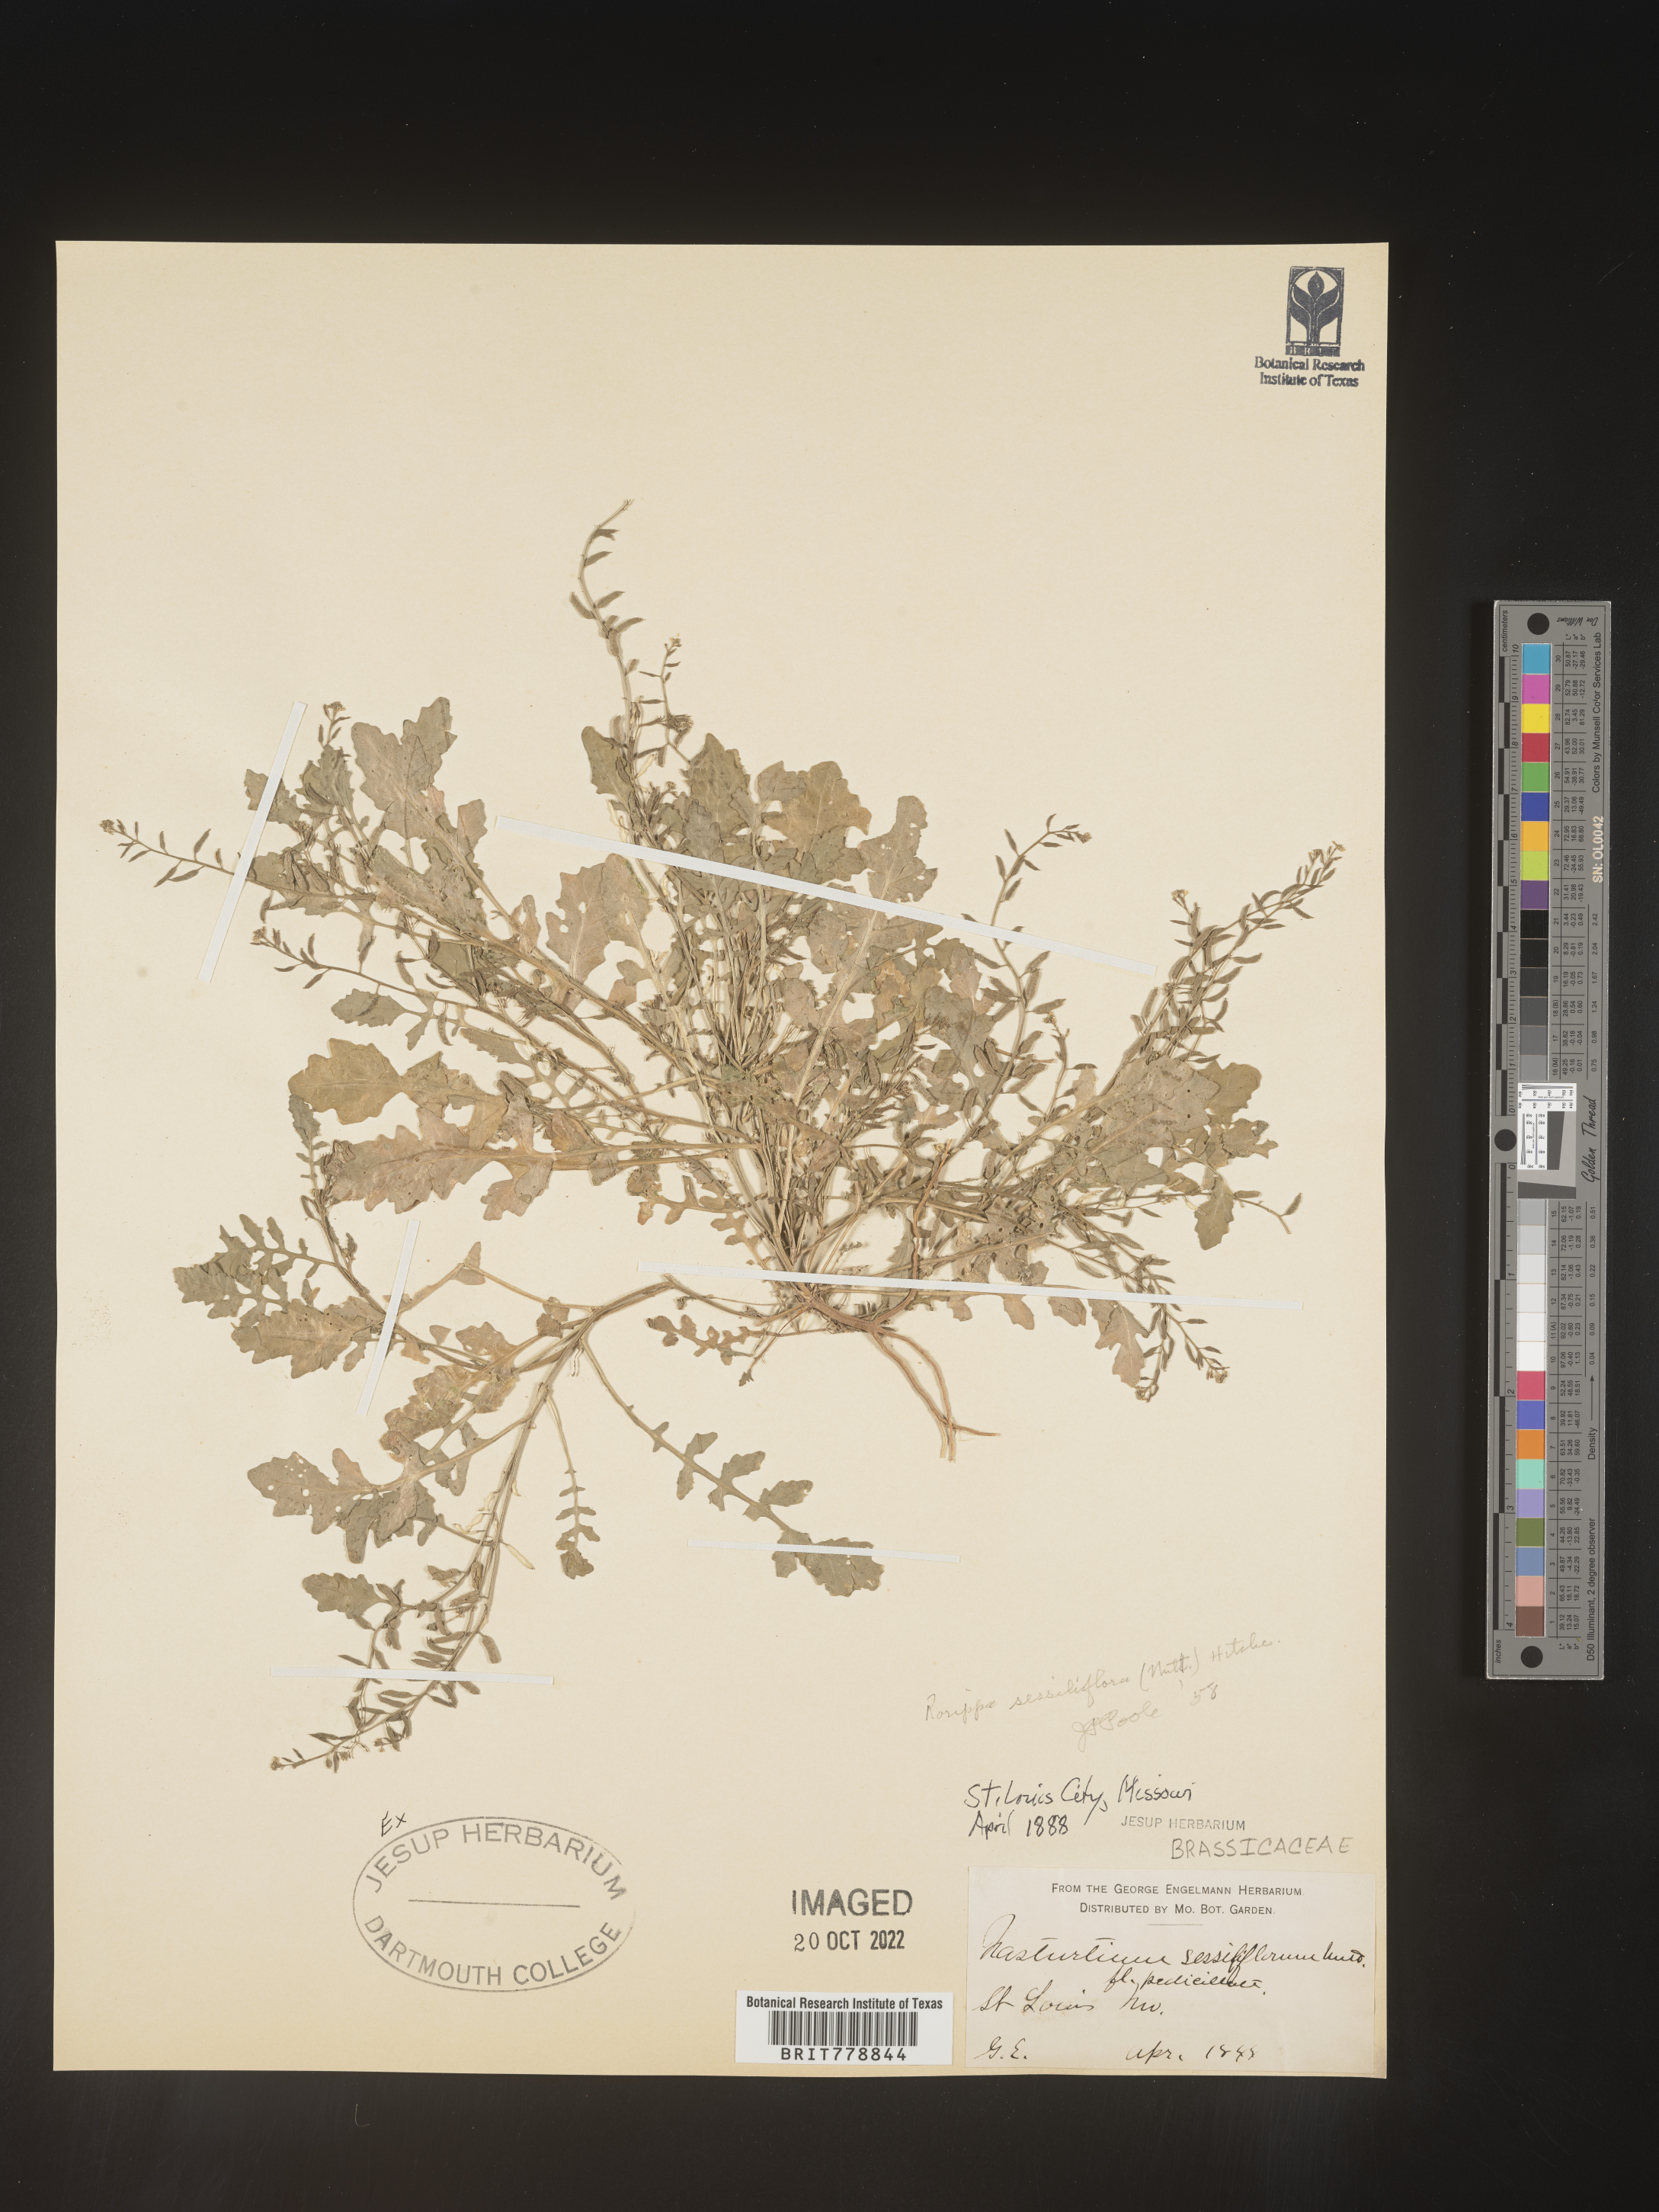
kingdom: Plantae
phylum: Tracheophyta
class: Magnoliopsida
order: Brassicales
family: Brassicaceae
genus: Rorippa
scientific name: Rorippa sessiliflora
